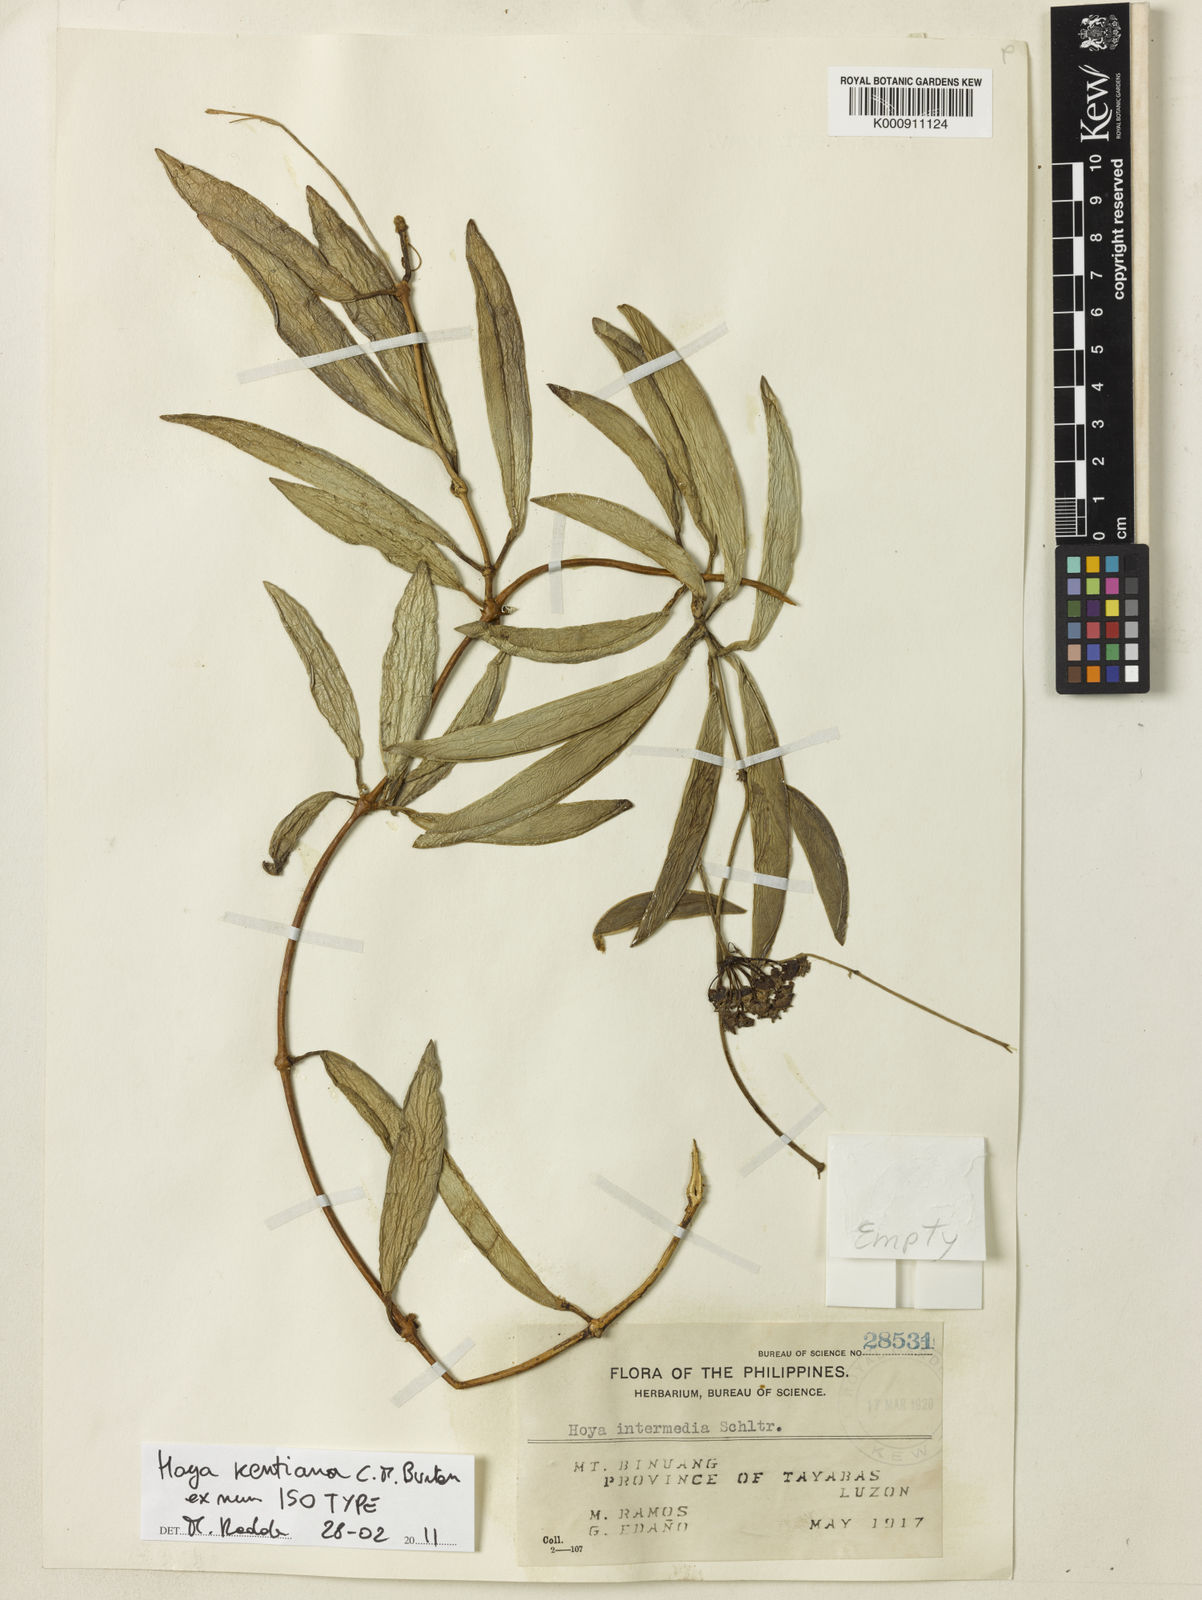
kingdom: Plantae
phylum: Tracheophyta
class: Magnoliopsida
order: Gentianales
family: Apocynaceae
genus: Hoya
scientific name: Hoya kentiana
